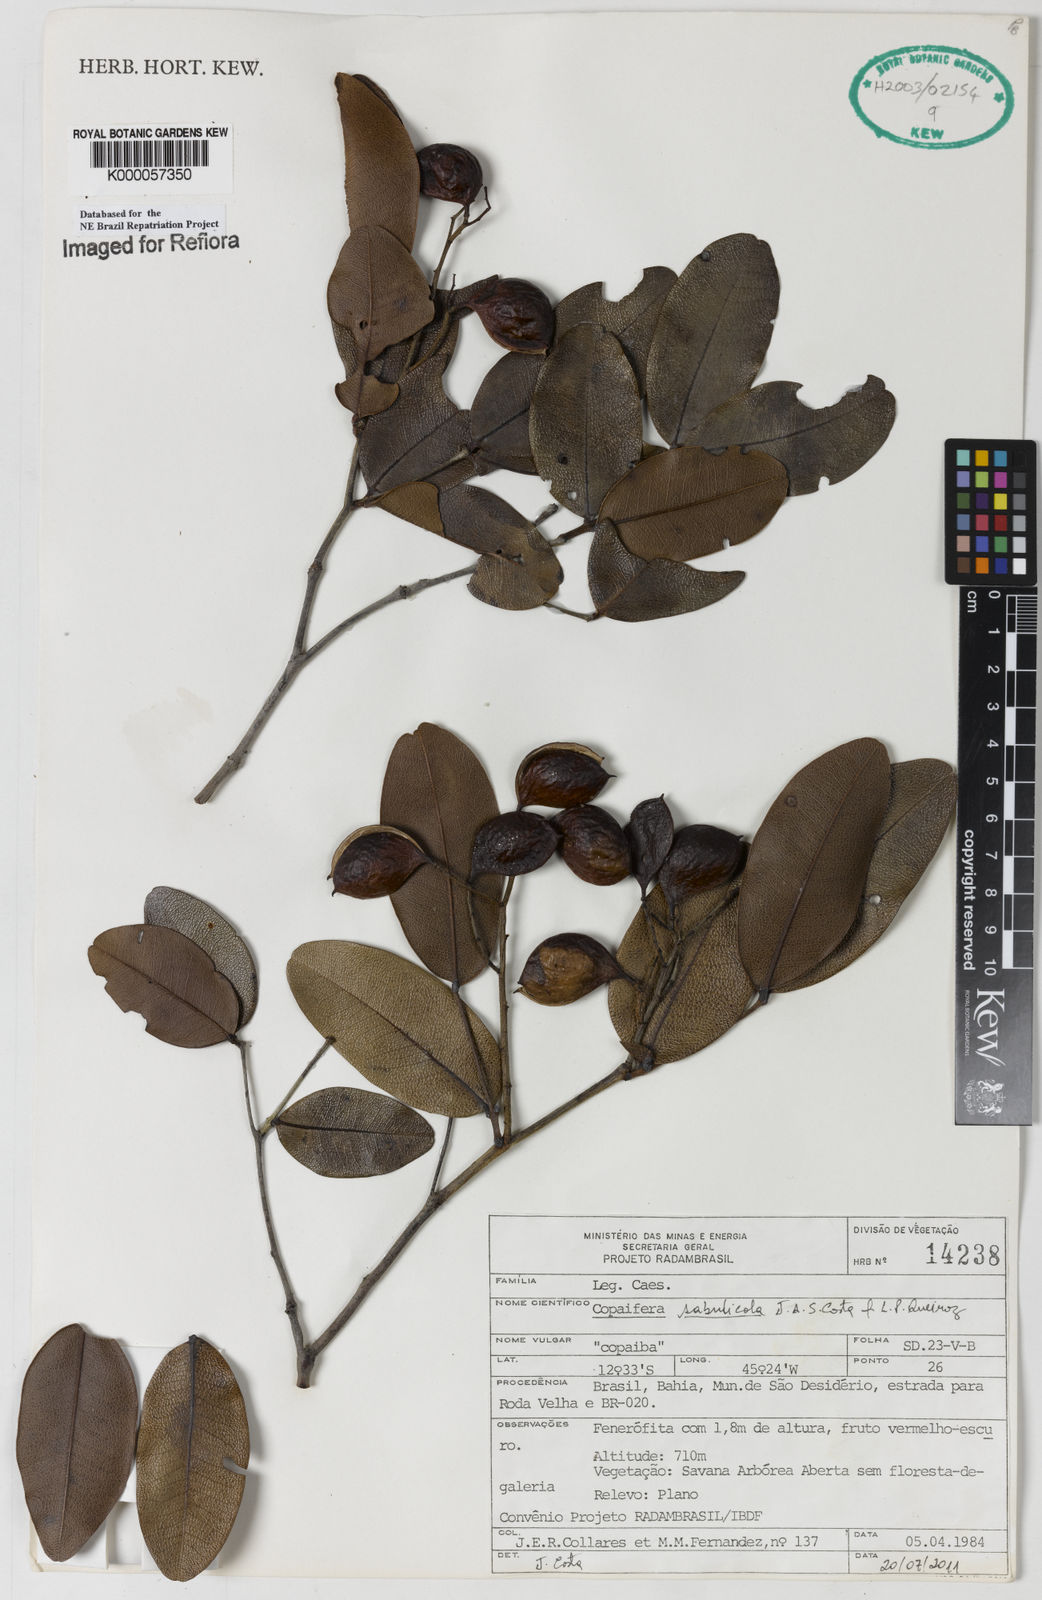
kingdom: Plantae
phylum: Tracheophyta
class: Magnoliopsida
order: Fabales
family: Fabaceae
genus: Copaifera
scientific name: Copaifera sabulicola
